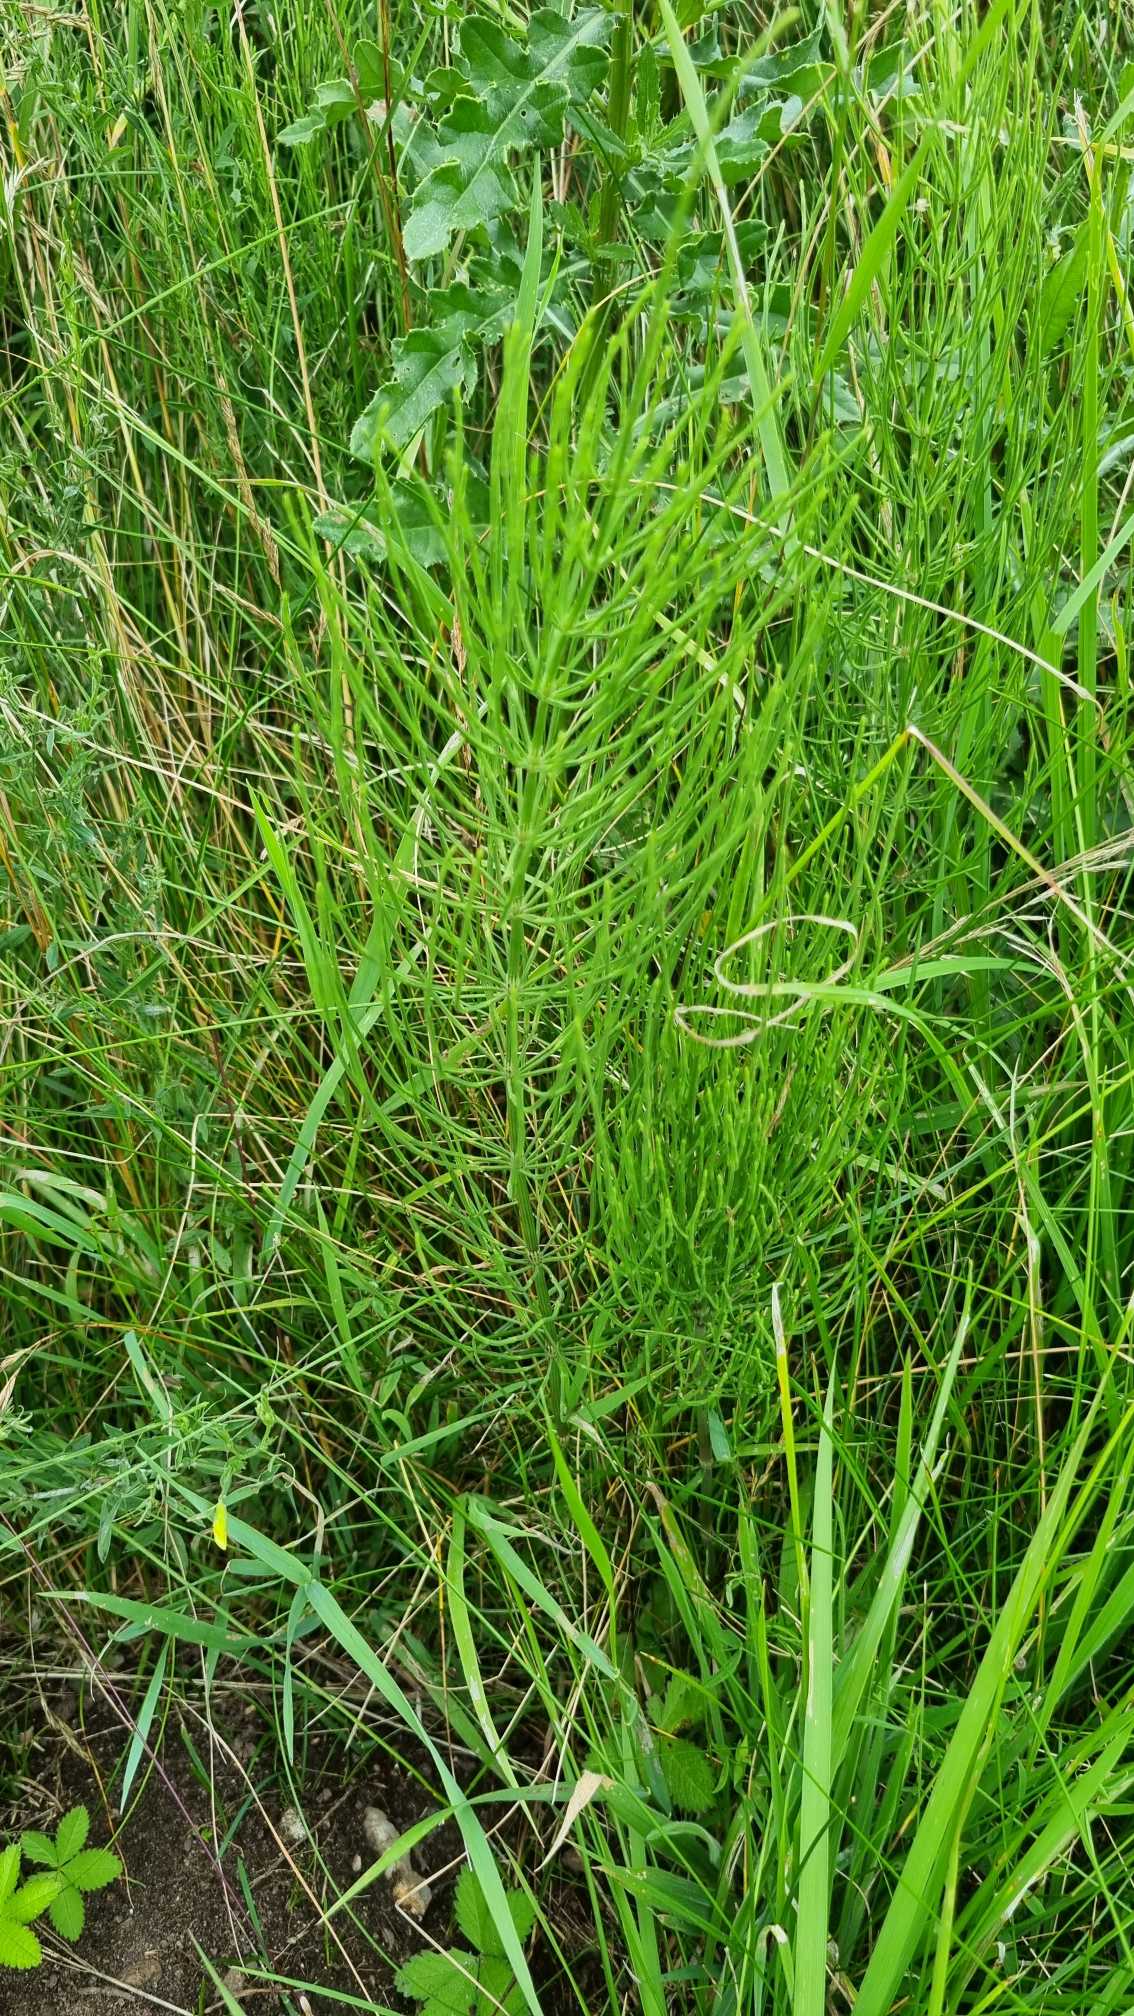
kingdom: Plantae
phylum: Tracheophyta
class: Polypodiopsida
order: Equisetales
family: Equisetaceae
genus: Equisetum
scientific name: Equisetum arvense
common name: Ager-padderok
